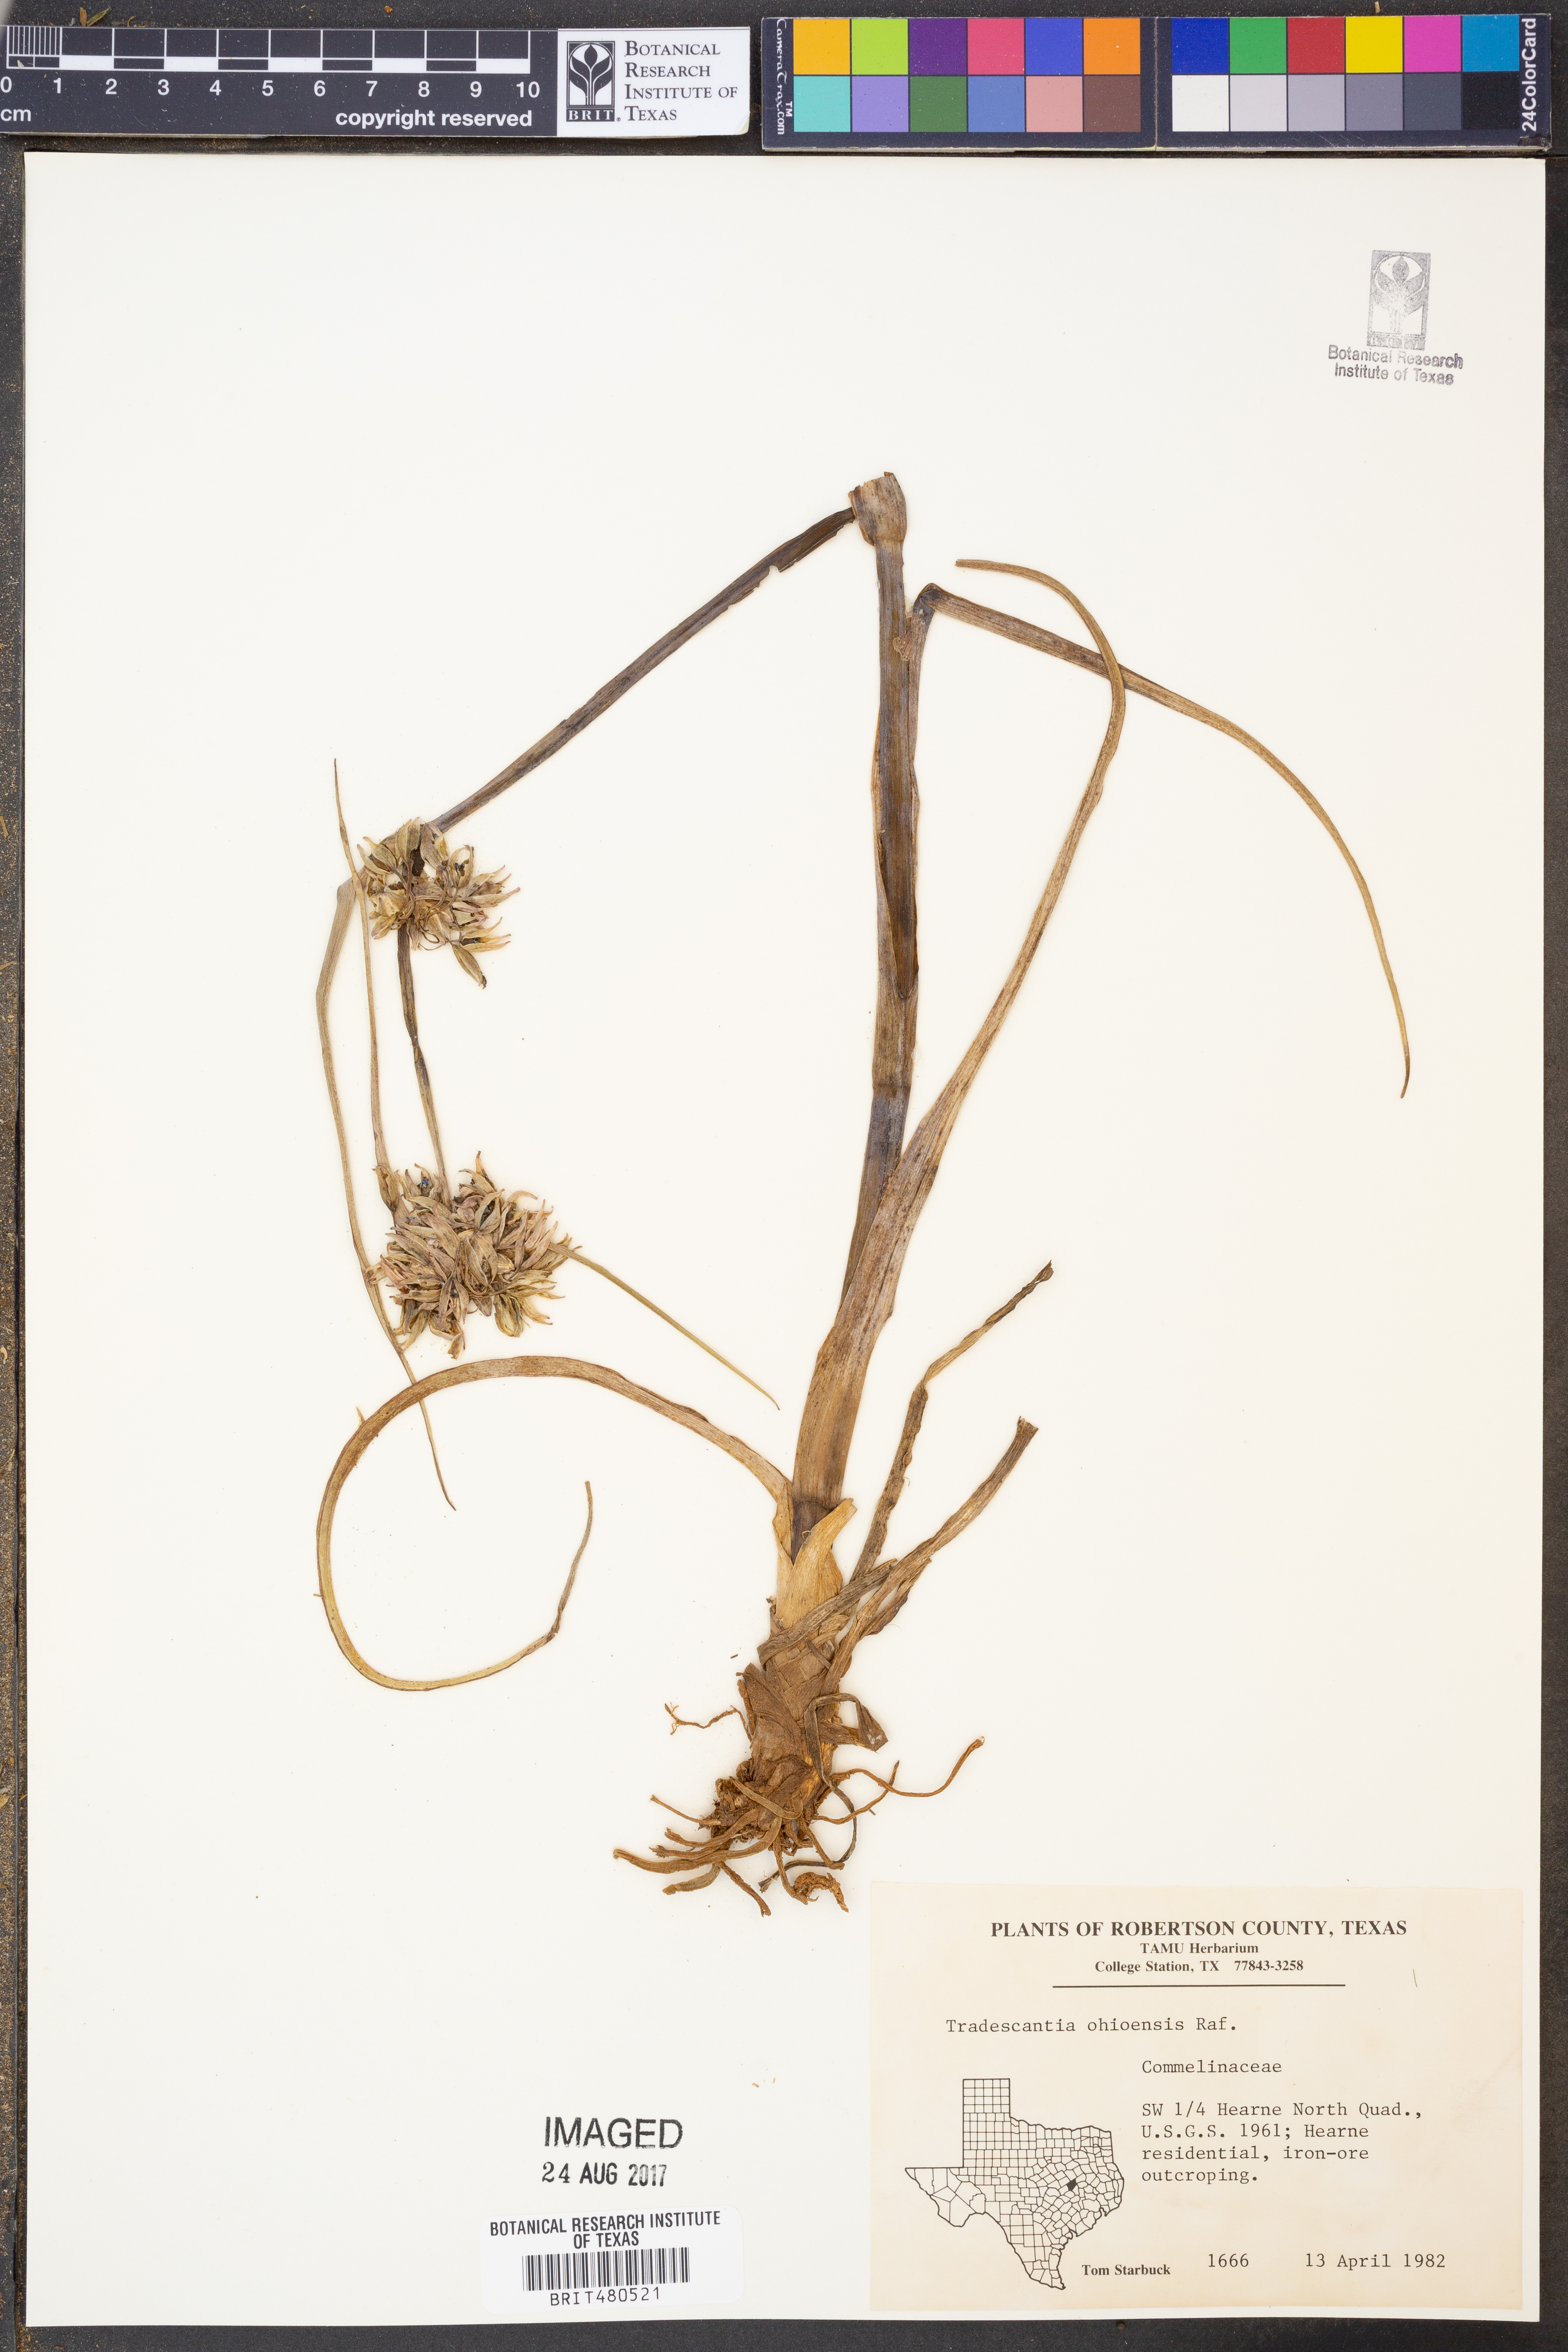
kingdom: Plantae
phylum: Tracheophyta
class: Liliopsida
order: Commelinales
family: Commelinaceae
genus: Tradescantia
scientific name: Tradescantia ohiensis
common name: Ohio spiderwort
